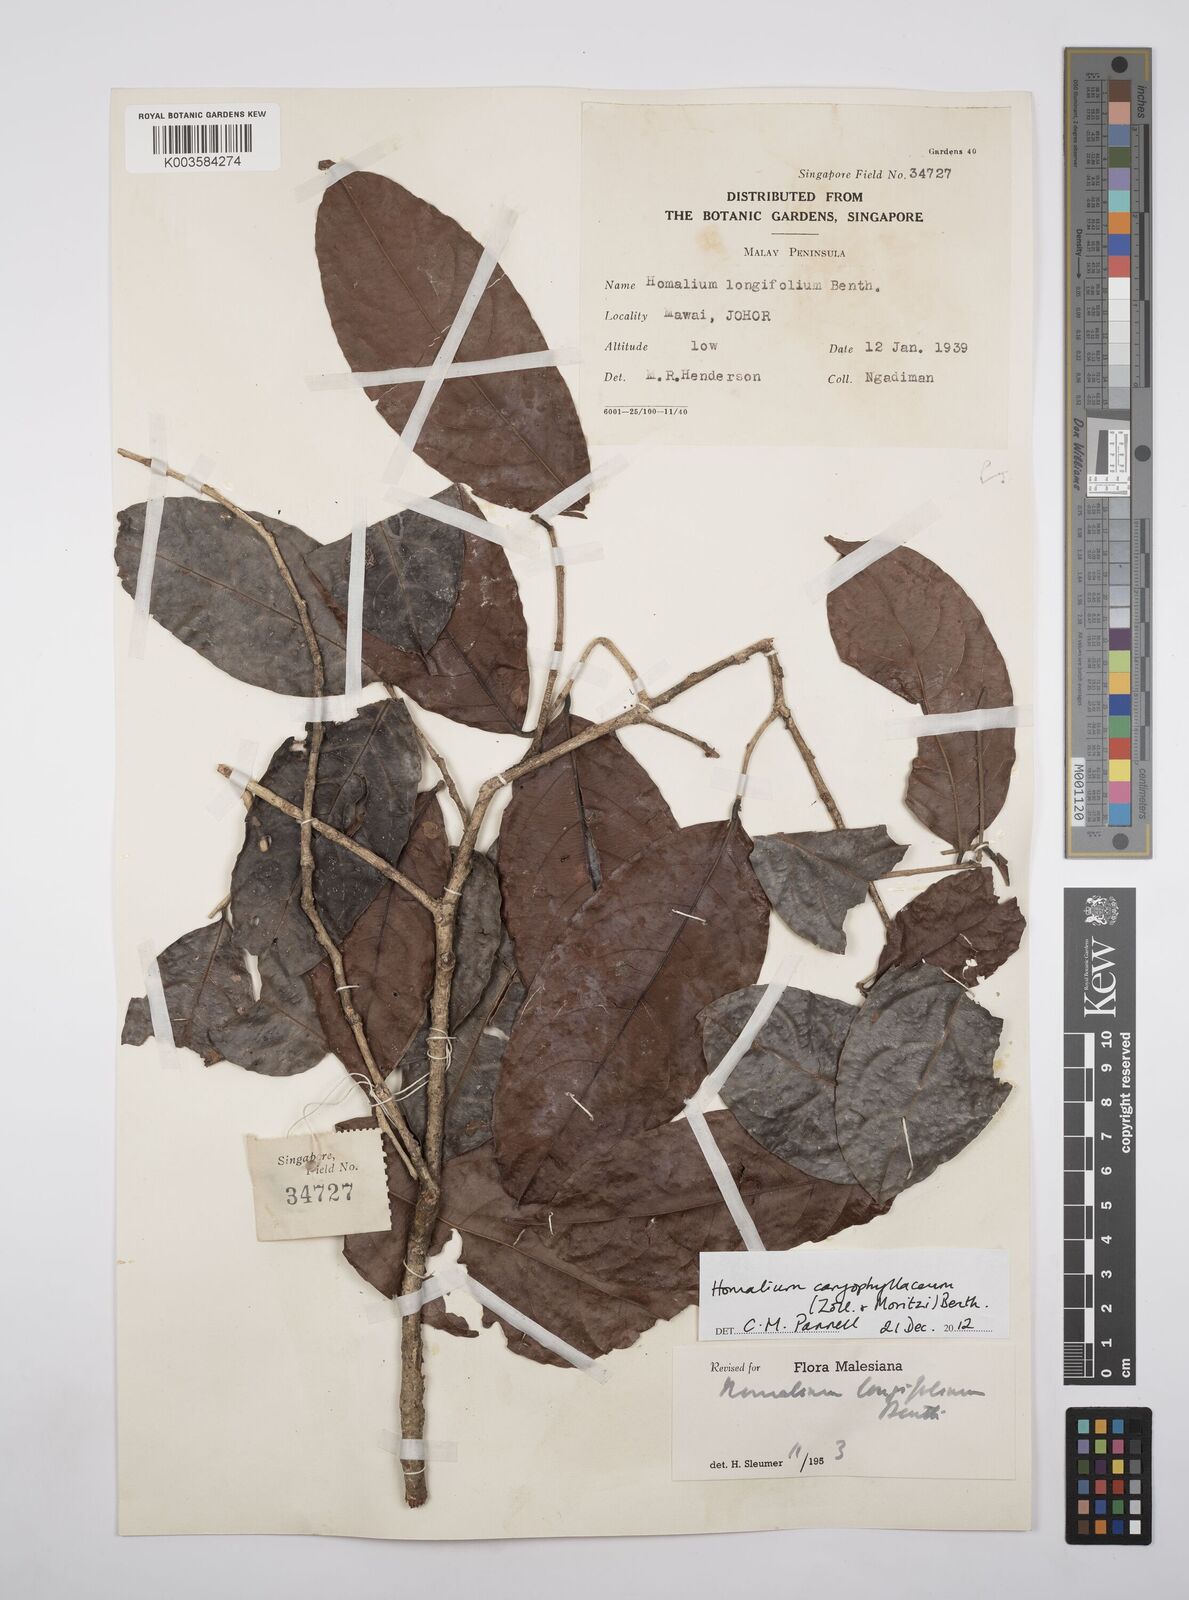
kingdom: Plantae
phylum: Tracheophyta
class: Magnoliopsida
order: Malpighiales
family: Salicaceae
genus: Homalium
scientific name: Homalium caryophyllaceum
